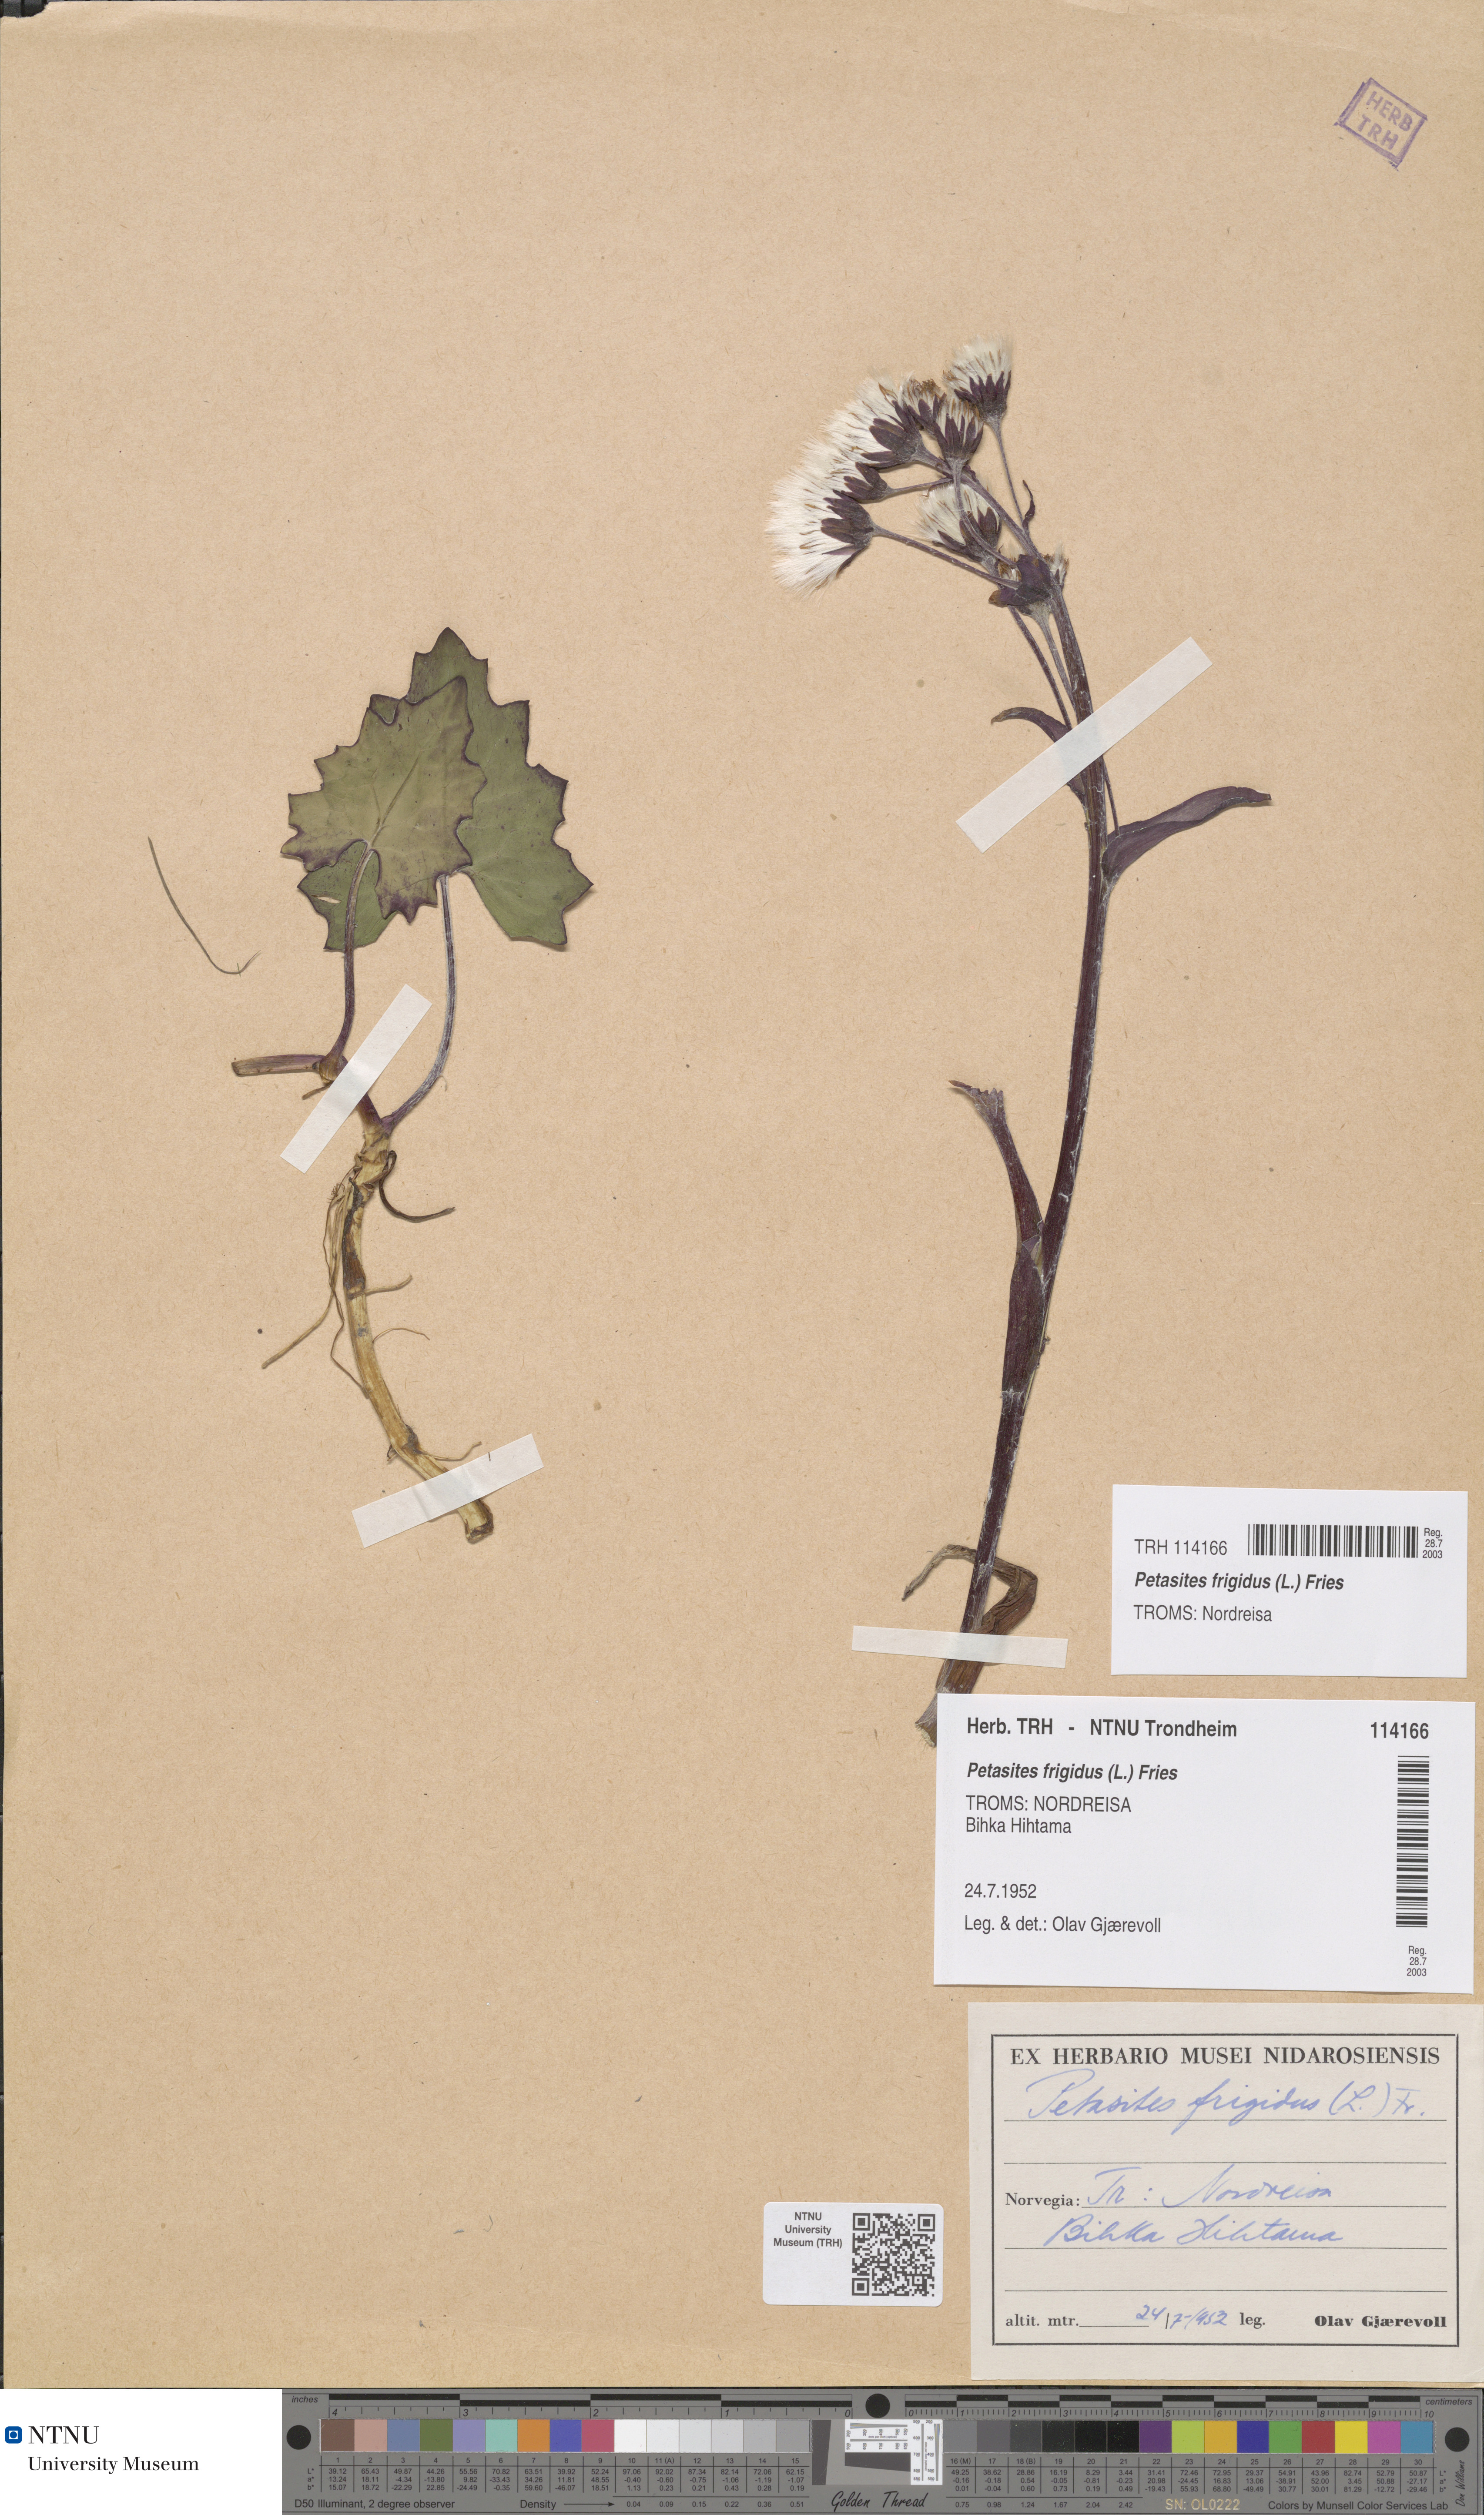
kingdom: Plantae
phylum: Tracheophyta
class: Magnoliopsida
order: Asterales
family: Asteraceae
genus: Petasites
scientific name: Petasites frigidus
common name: Arctic butterbur
